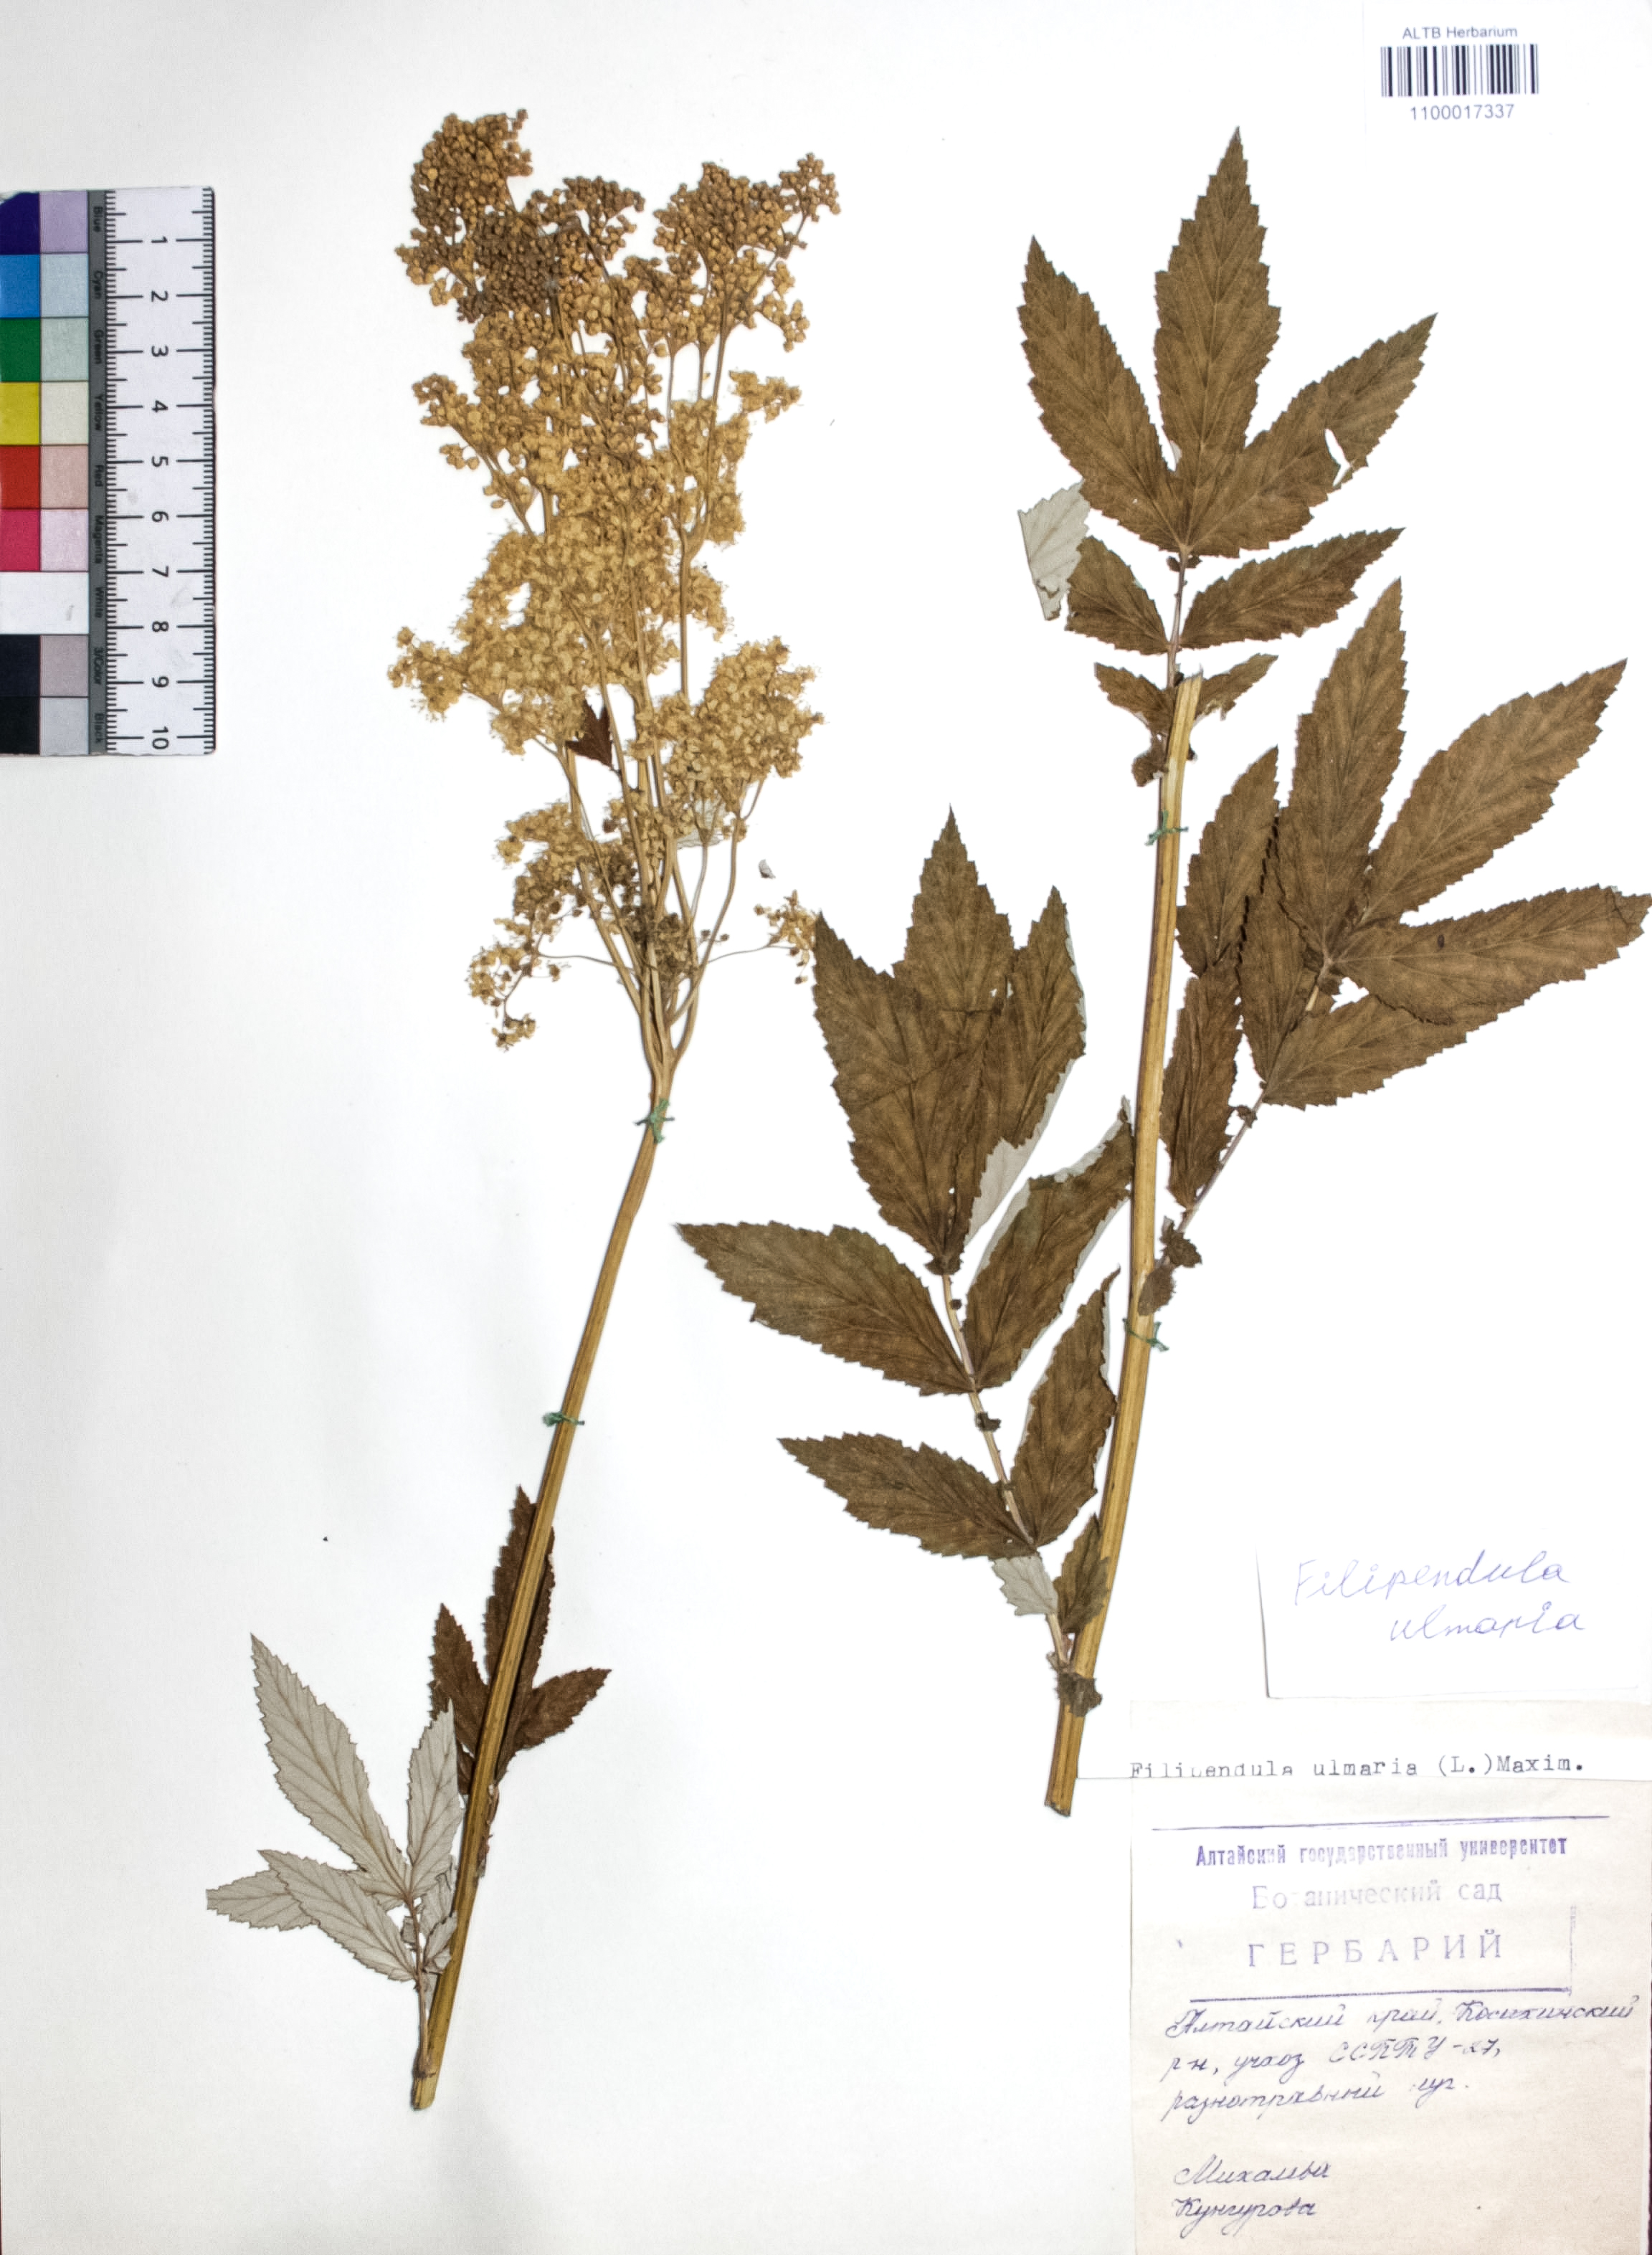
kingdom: Plantae
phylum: Tracheophyta
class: Magnoliopsida
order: Rosales
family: Rosaceae
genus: Filipendula
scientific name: Filipendula ulmaria
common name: Meadowsweet
